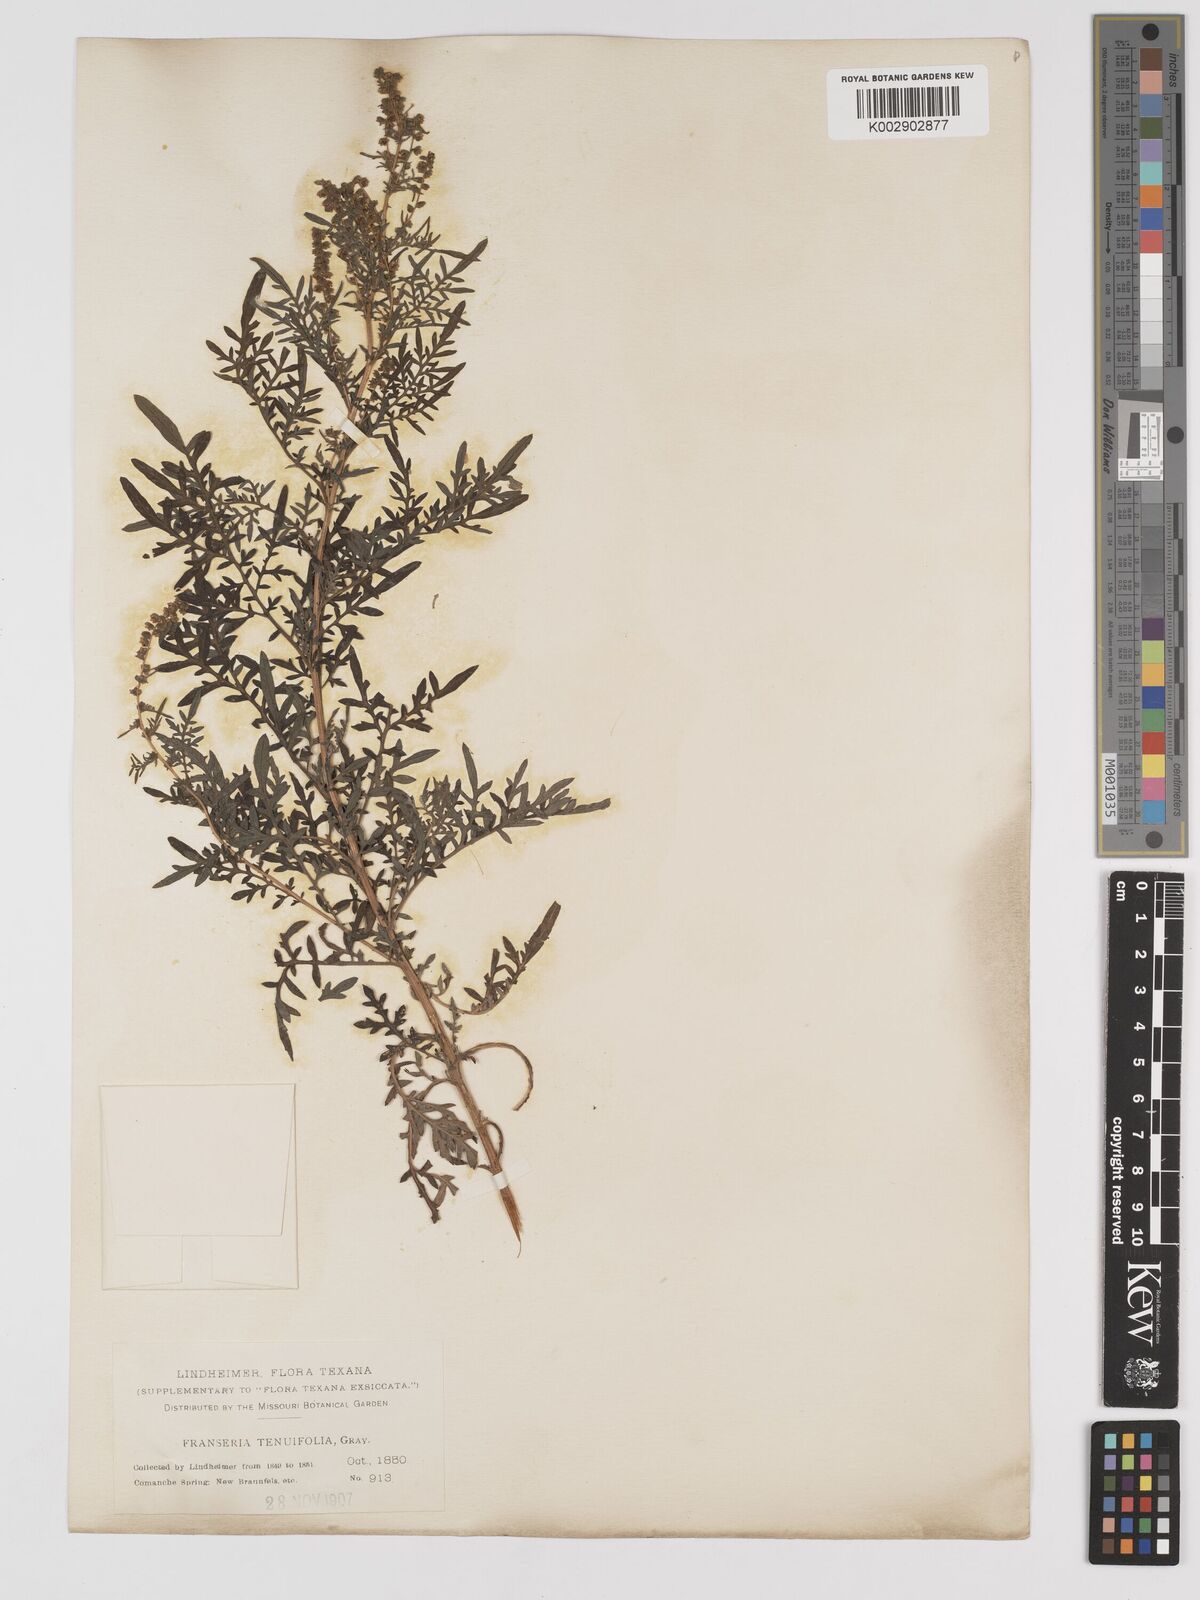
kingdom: Plantae
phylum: Tracheophyta
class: Magnoliopsida
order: Asterales
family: Asteraceae
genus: Ambrosia
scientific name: Ambrosia confertiflora
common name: Bur ragweed
